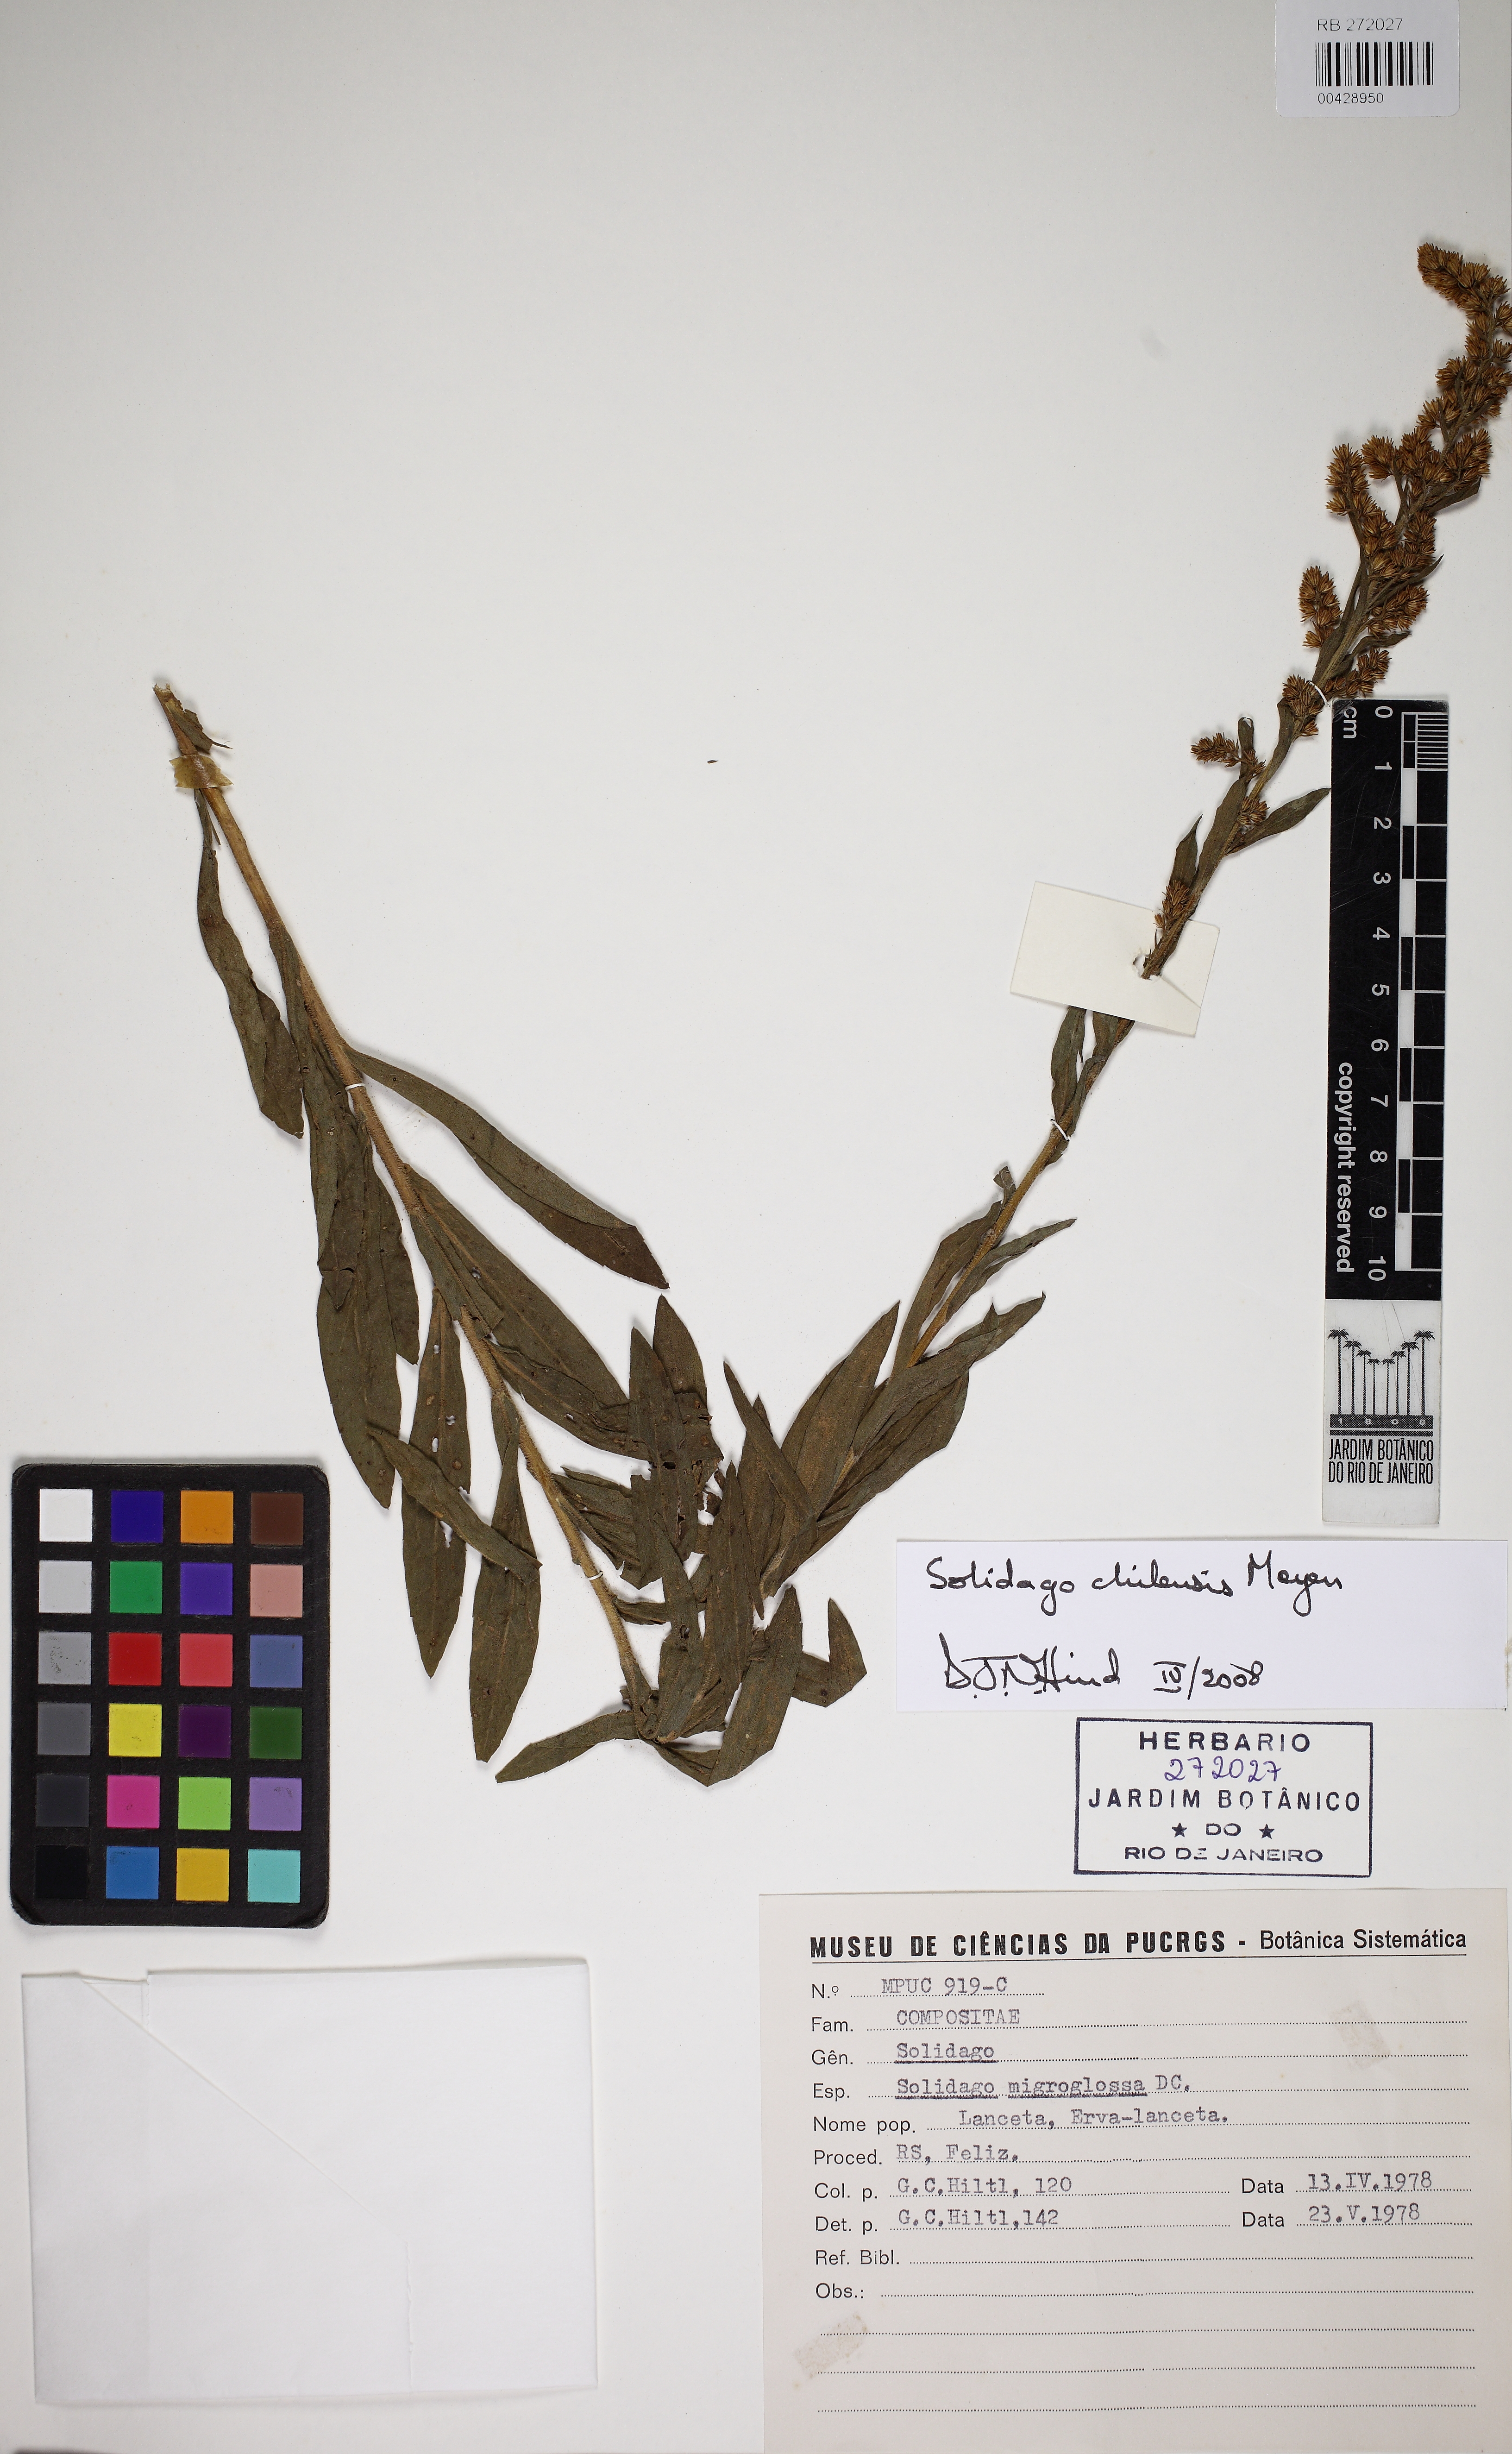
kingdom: Plantae
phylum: Tracheophyta
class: Magnoliopsida
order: Asterales
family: Asteraceae
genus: Solidago
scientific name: Solidago chilensis
